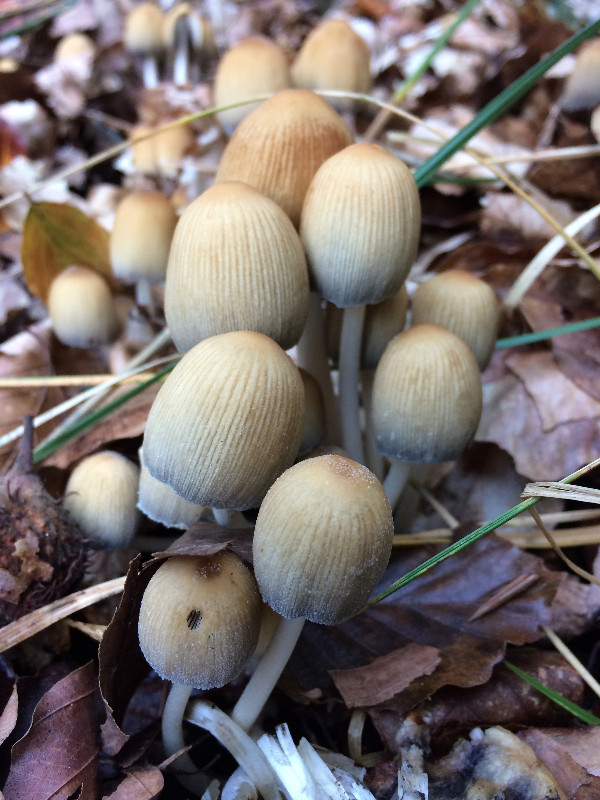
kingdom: Fungi
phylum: Basidiomycota
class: Agaricomycetes
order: Agaricales
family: Psathyrellaceae
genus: Coprinellus
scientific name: Coprinellus micaceus
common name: glimmer-blækhat
